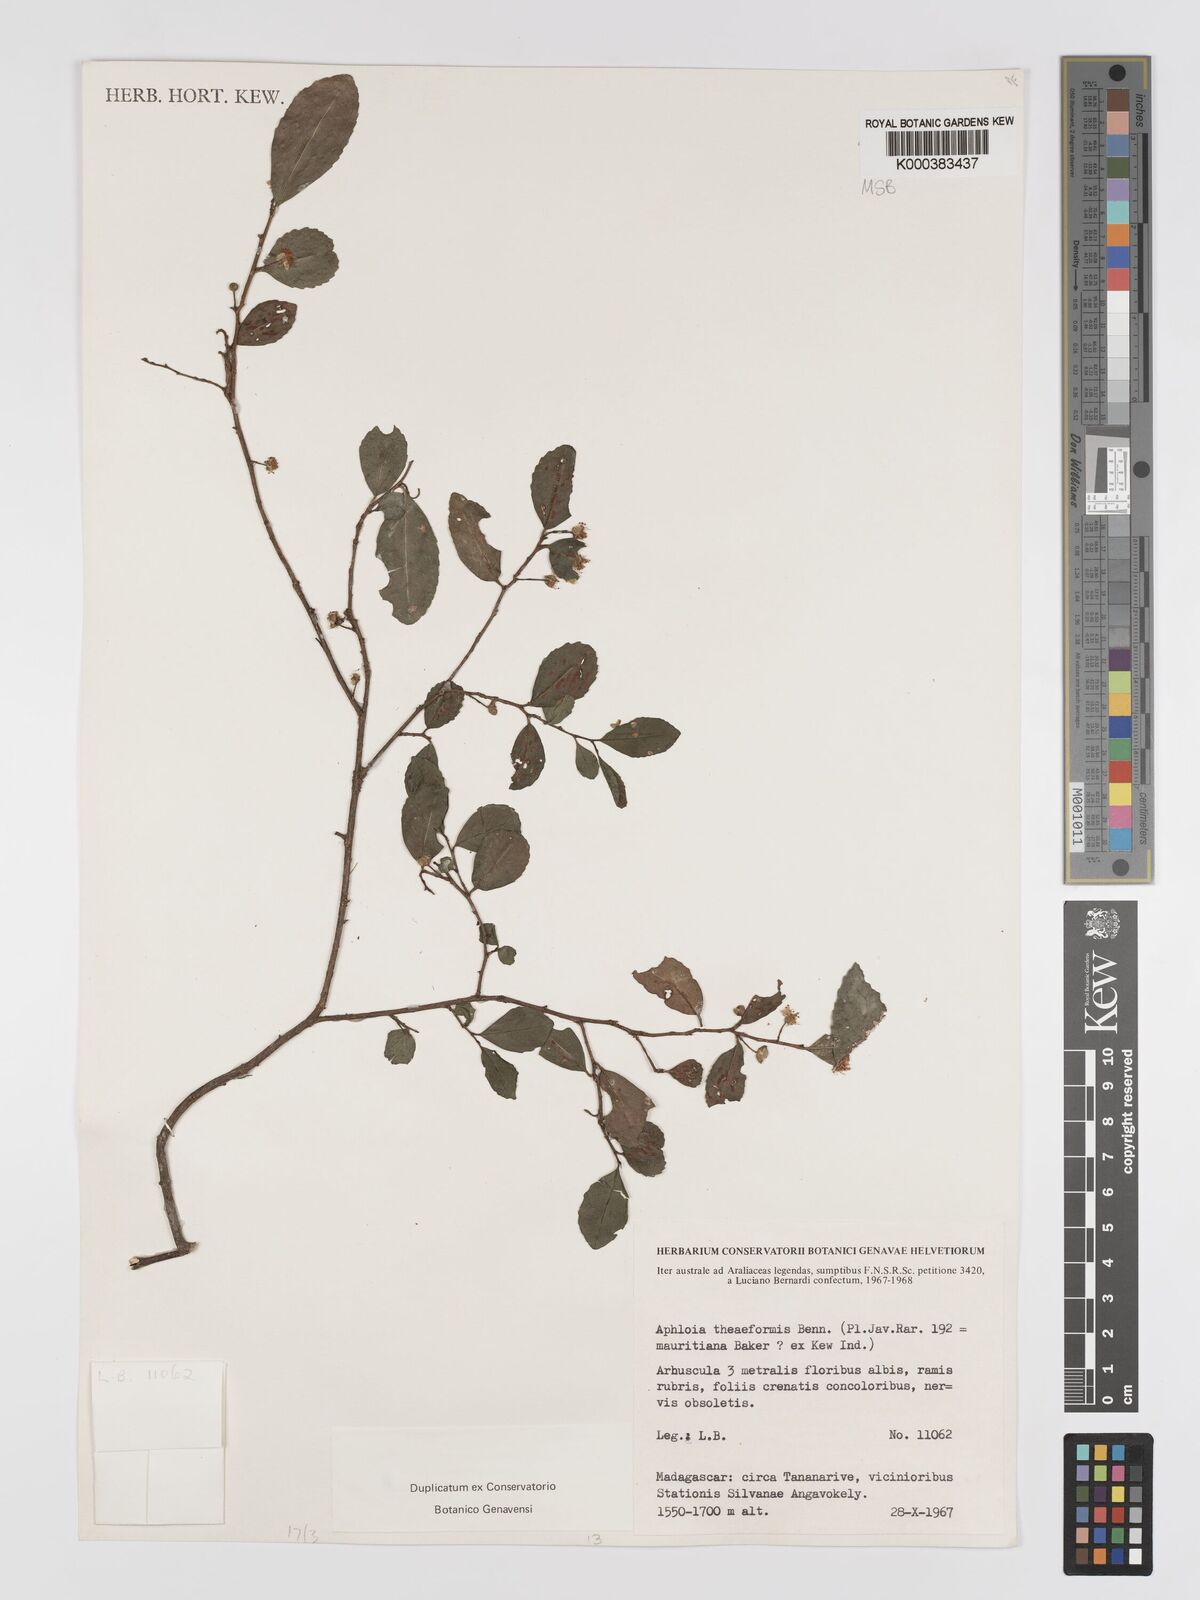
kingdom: Plantae
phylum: Tracheophyta
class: Magnoliopsida
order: Crossosomatales
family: Aphloiaceae
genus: Aphloia
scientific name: Aphloia theiformis
